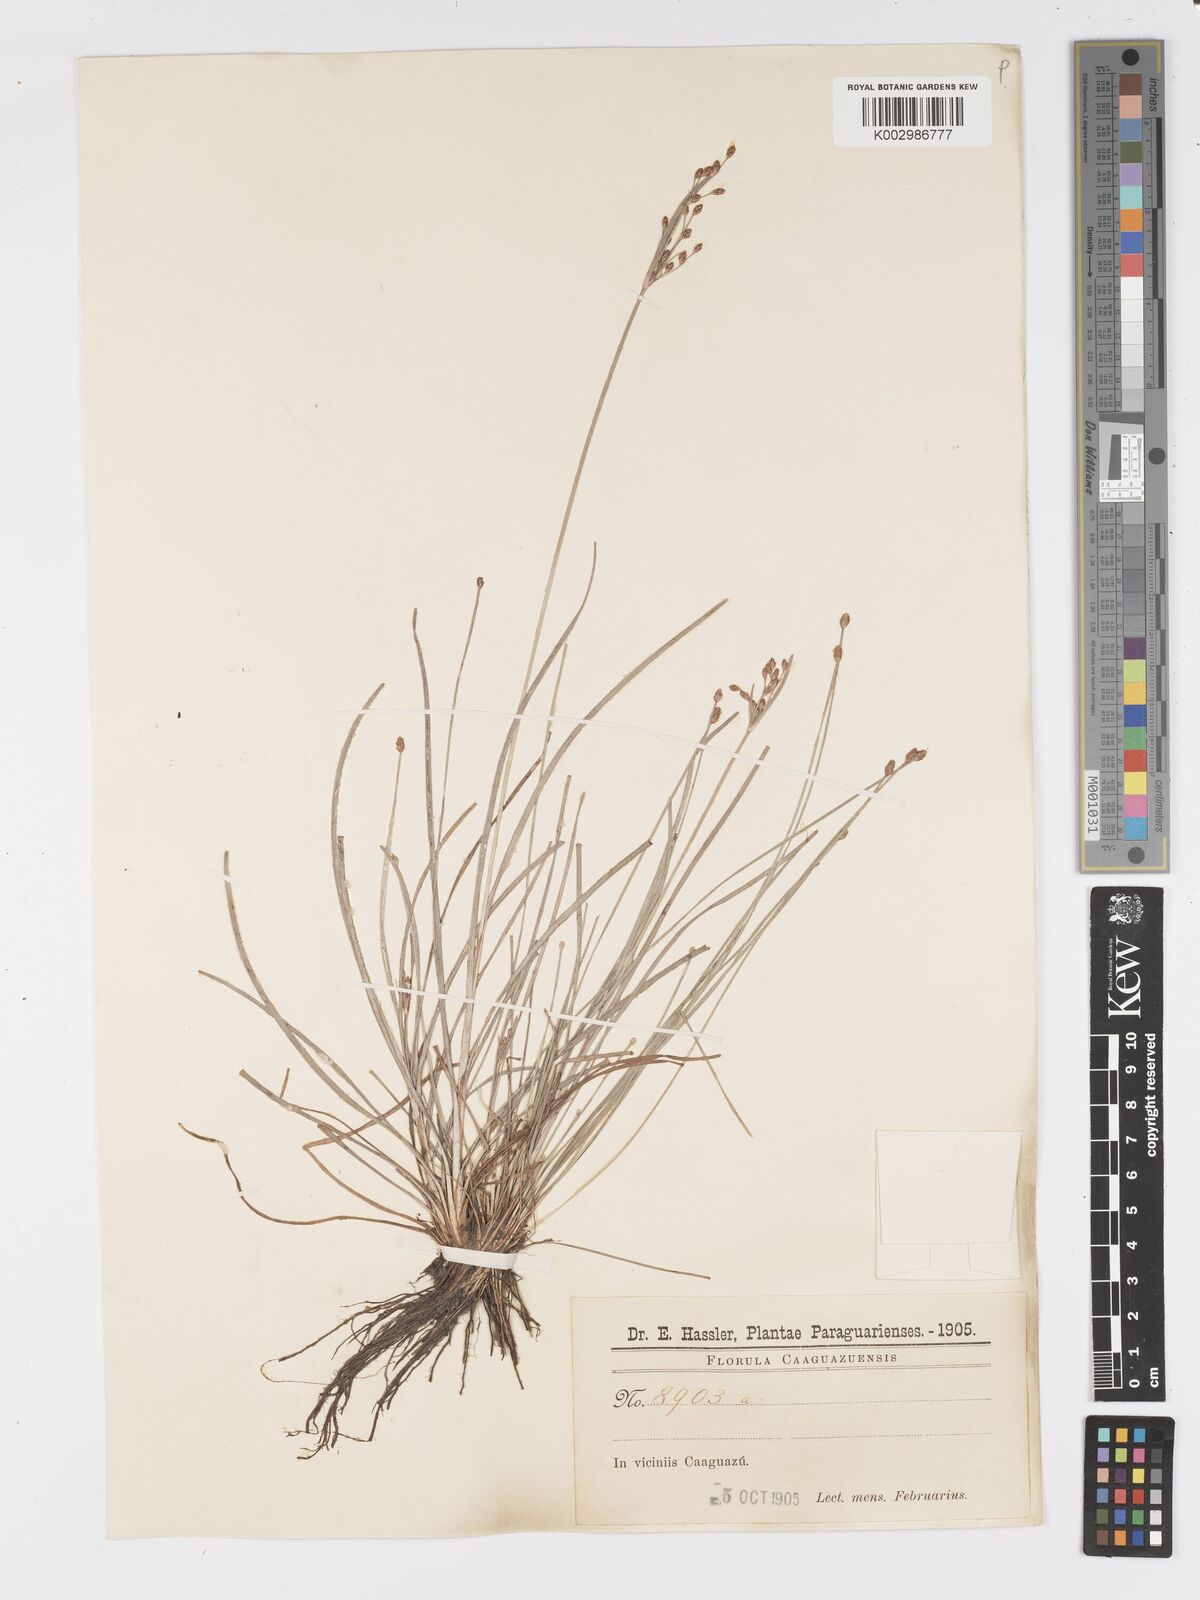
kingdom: Plantae
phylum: Tracheophyta
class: Liliopsida
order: Poales
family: Cyperaceae
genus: Fimbristylis
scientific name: Fimbristylis dichotoma
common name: Forked fimbry
